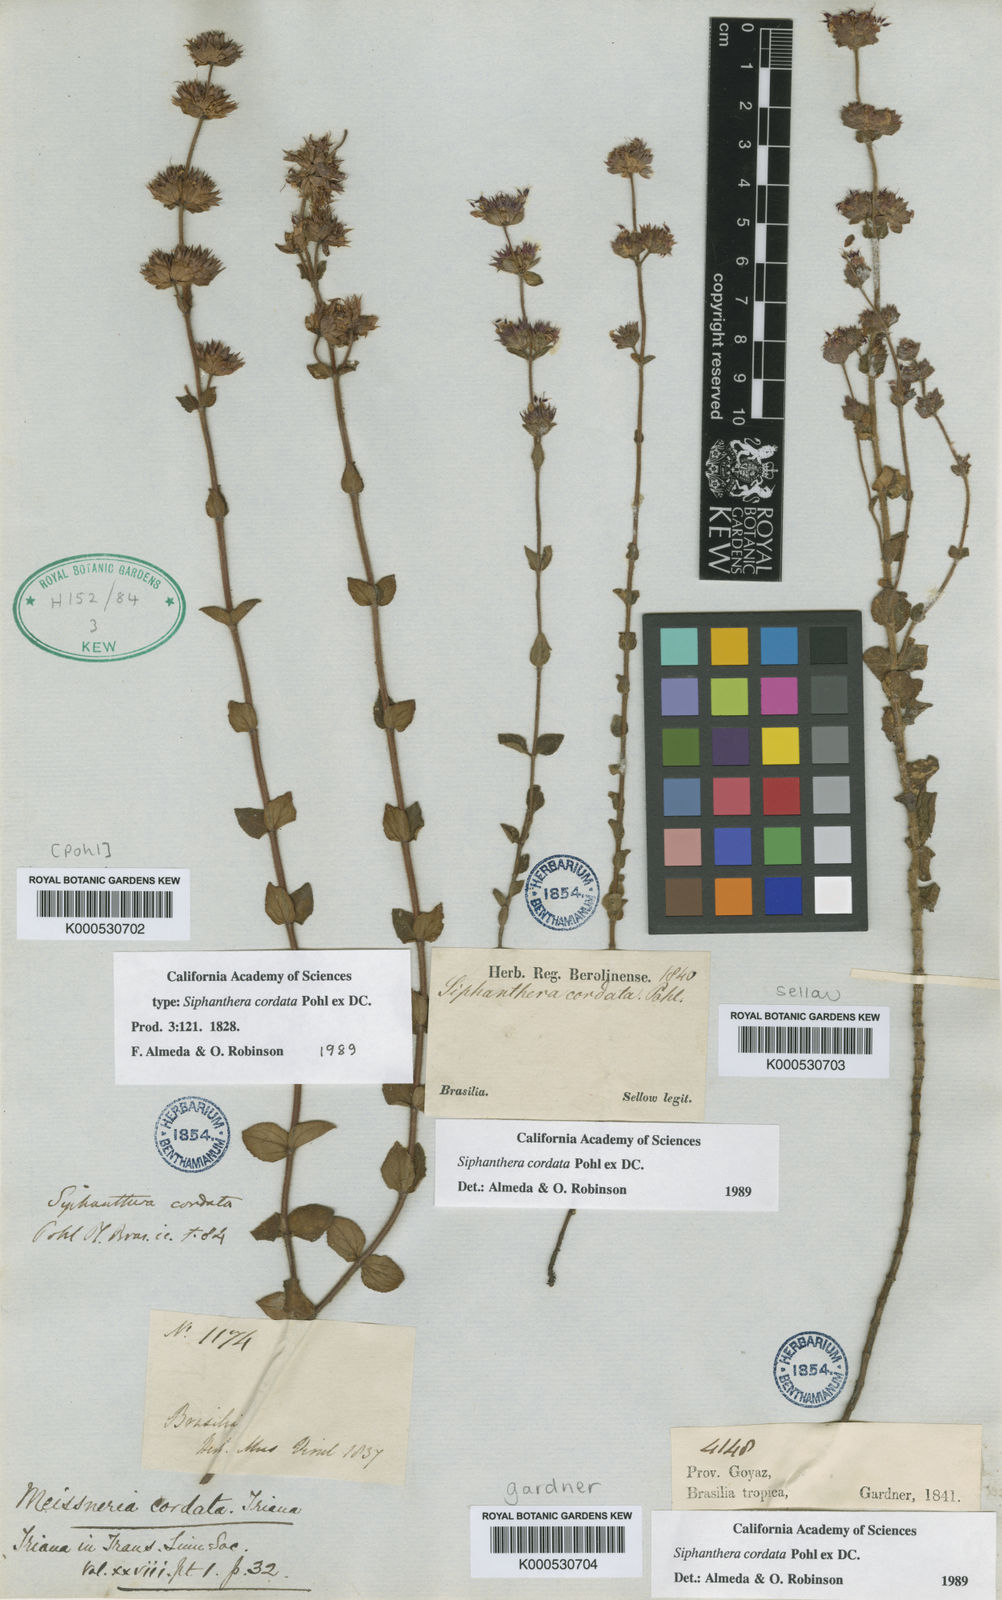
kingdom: Plantae
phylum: Tracheophyta
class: Magnoliopsida
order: Myrtales
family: Melastomataceae
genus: Siphanthera
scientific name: Siphanthera
